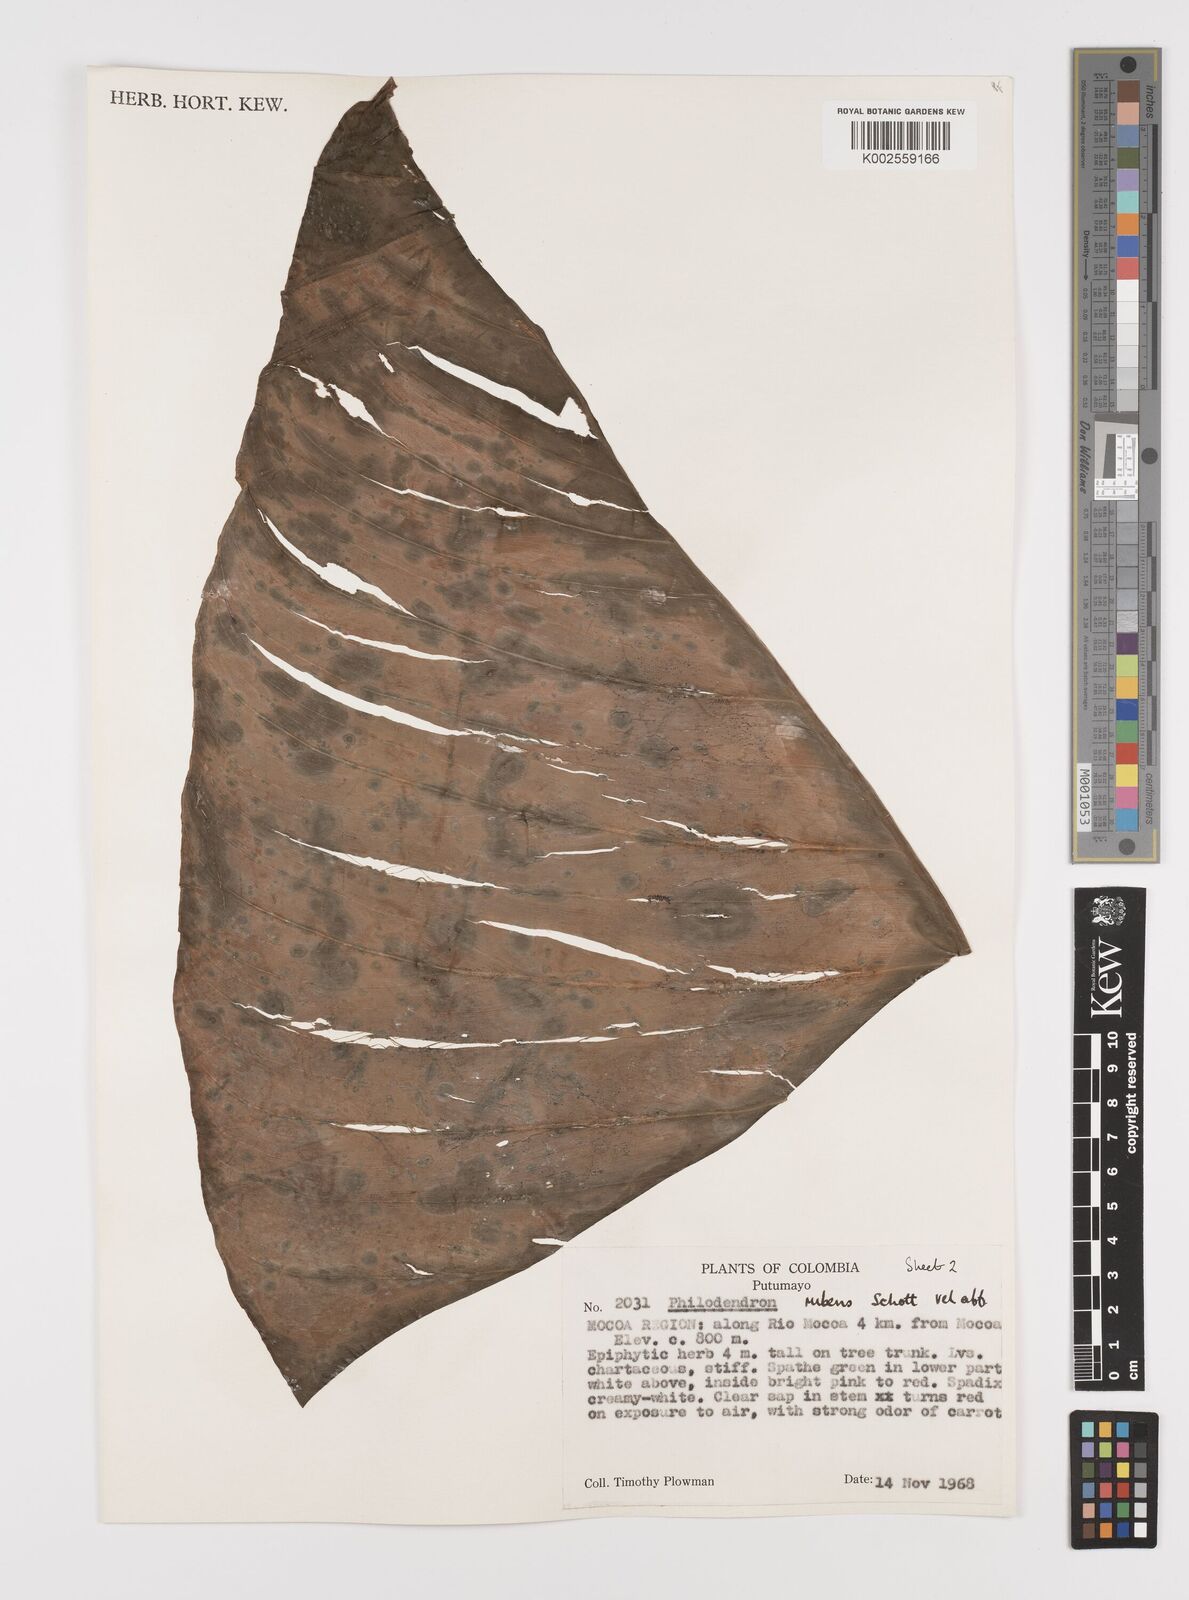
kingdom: Plantae
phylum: Tracheophyta
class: Liliopsida
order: Alismatales
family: Araceae
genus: Philodendron
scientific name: Philodendron ornatum
